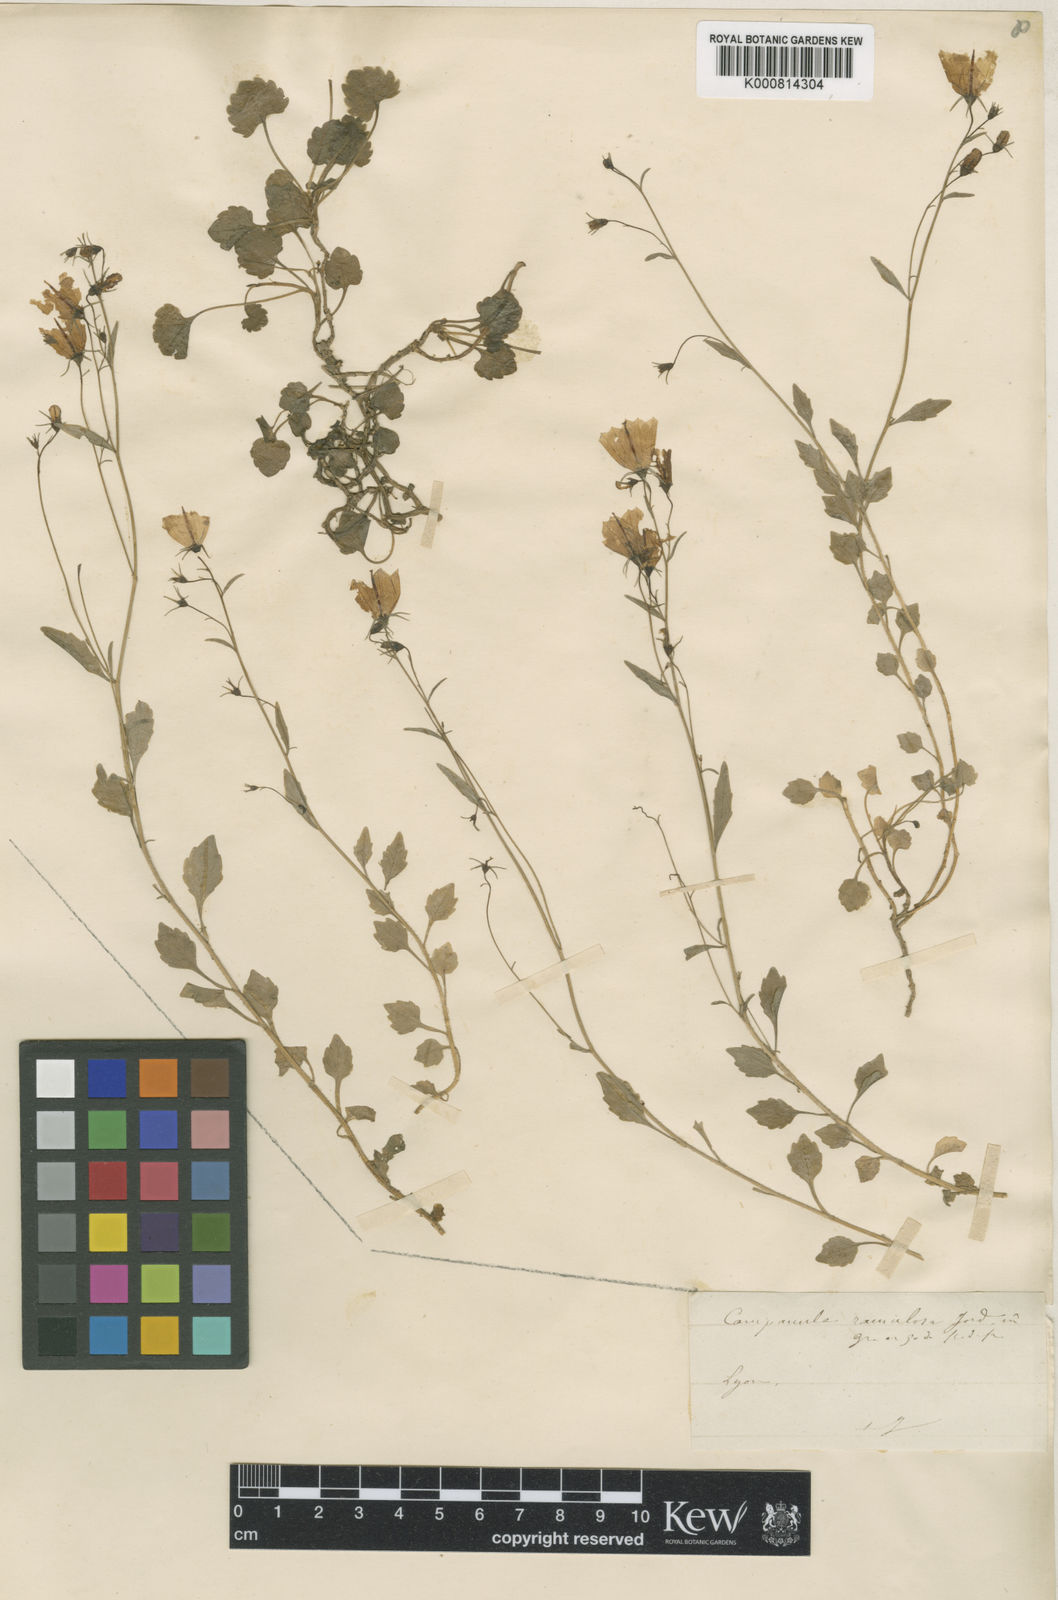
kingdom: Plantae
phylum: Tracheophyta
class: Magnoliopsida
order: Asterales
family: Campanulaceae
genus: Campanula
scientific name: Campanula cochleariifolia
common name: Fairies'-thimbles
